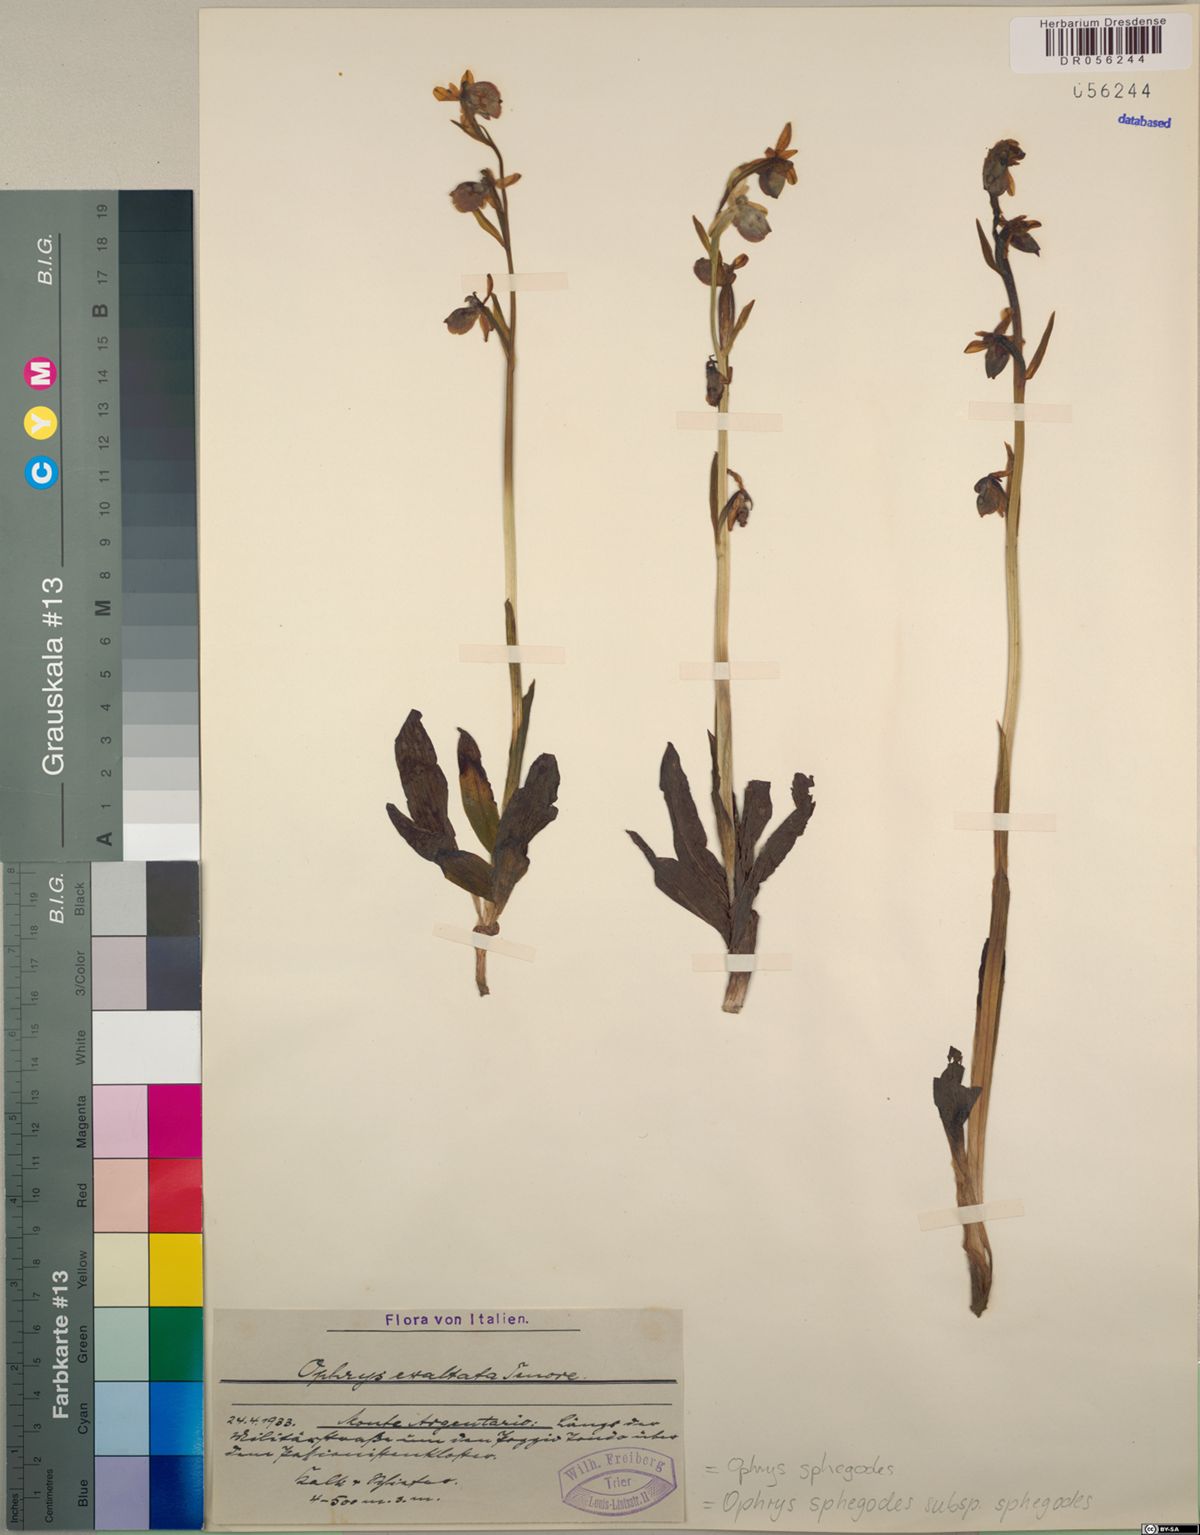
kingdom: Plantae
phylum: Tracheophyta
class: Liliopsida
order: Asparagales
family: Orchidaceae
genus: Ophrys
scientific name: Ophrys sphegodes
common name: Early spider-orchid
